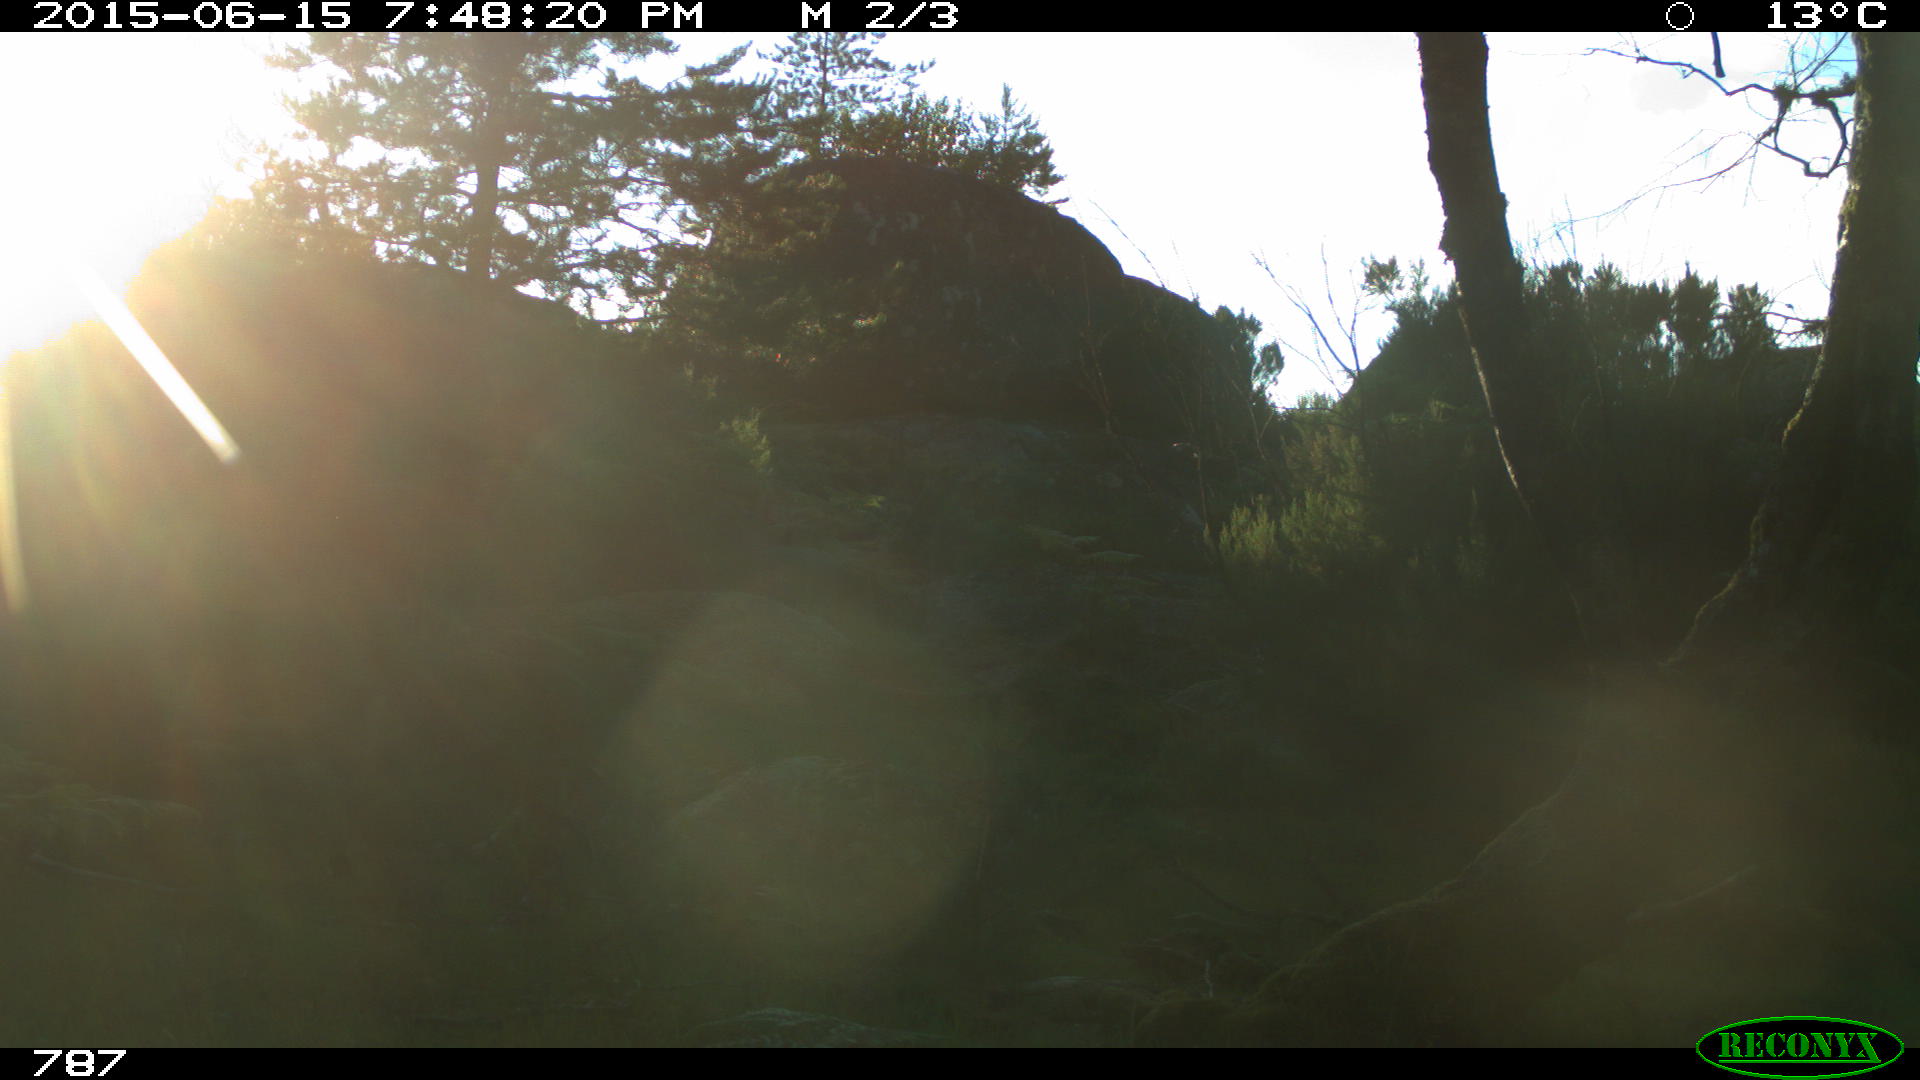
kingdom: Animalia
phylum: Chordata
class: Mammalia
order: Perissodactyla
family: Equidae
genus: Equus
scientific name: Equus caballus
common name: Horse
